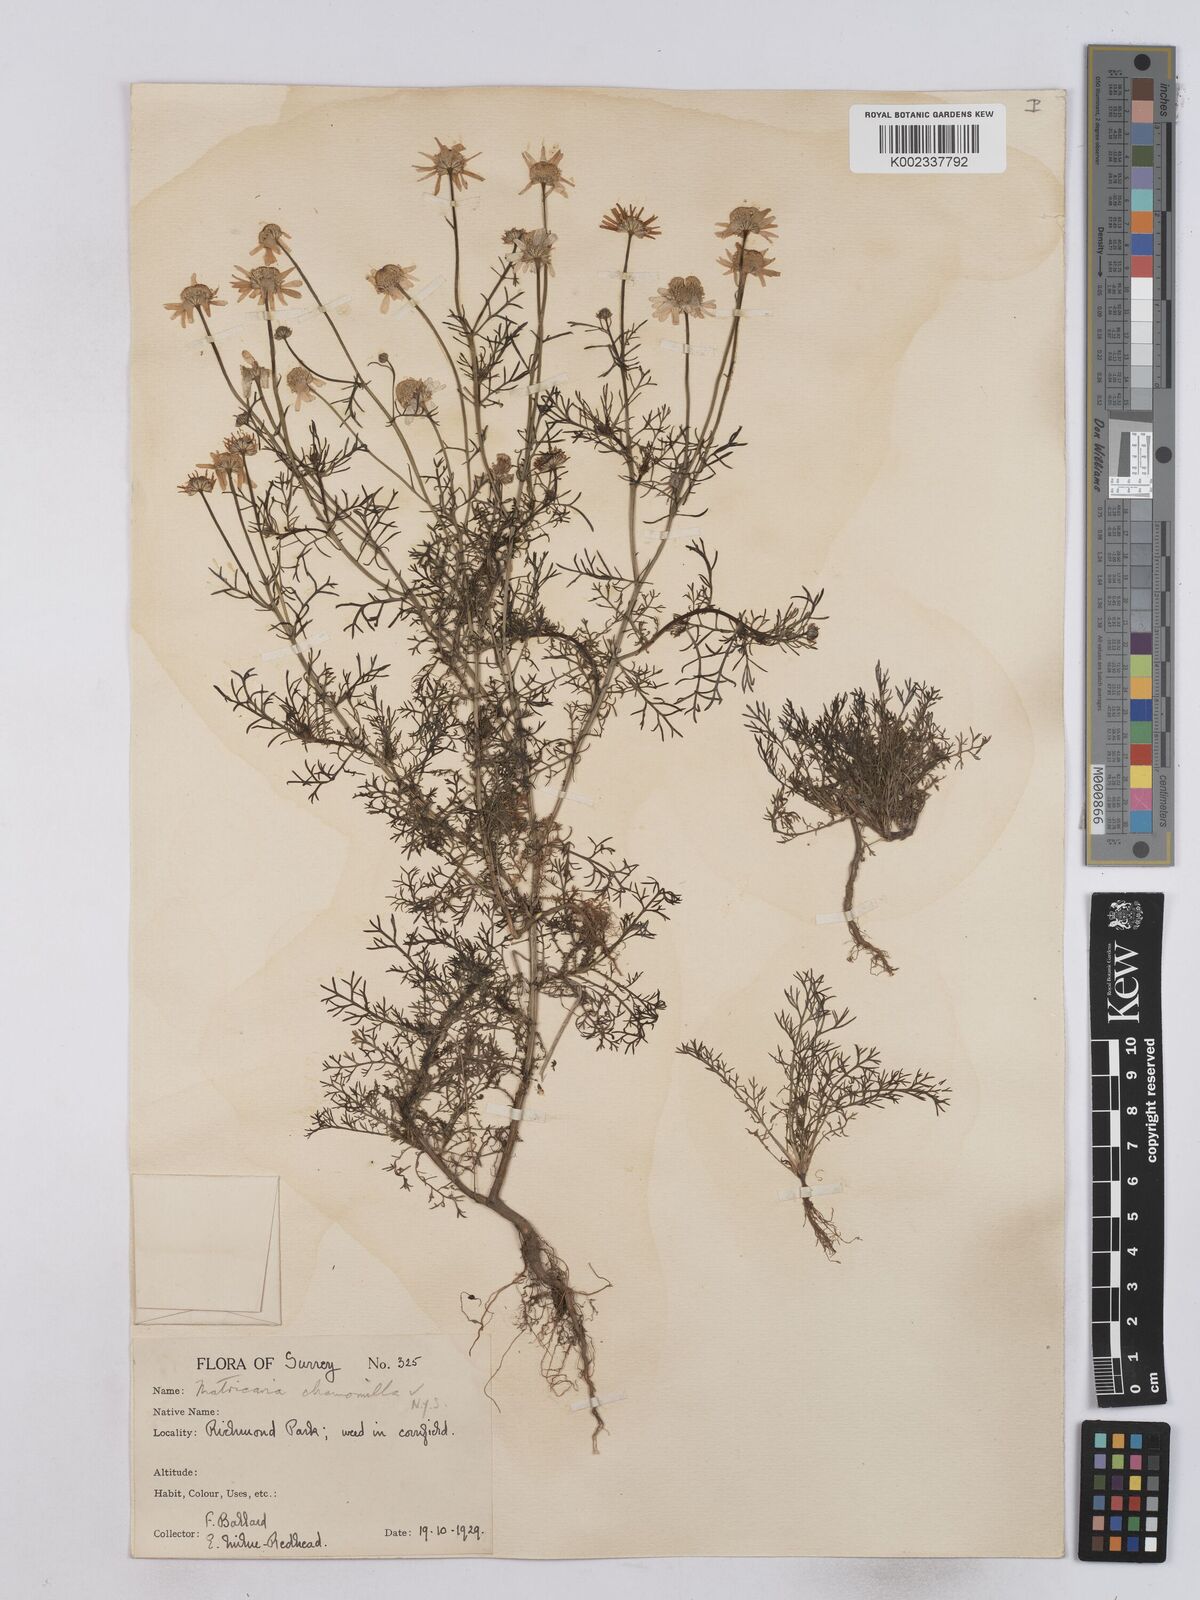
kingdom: Plantae
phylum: Tracheophyta
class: Magnoliopsida
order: Asterales
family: Asteraceae
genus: Matricaria
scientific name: Matricaria chamomilla
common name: Scented mayweed
